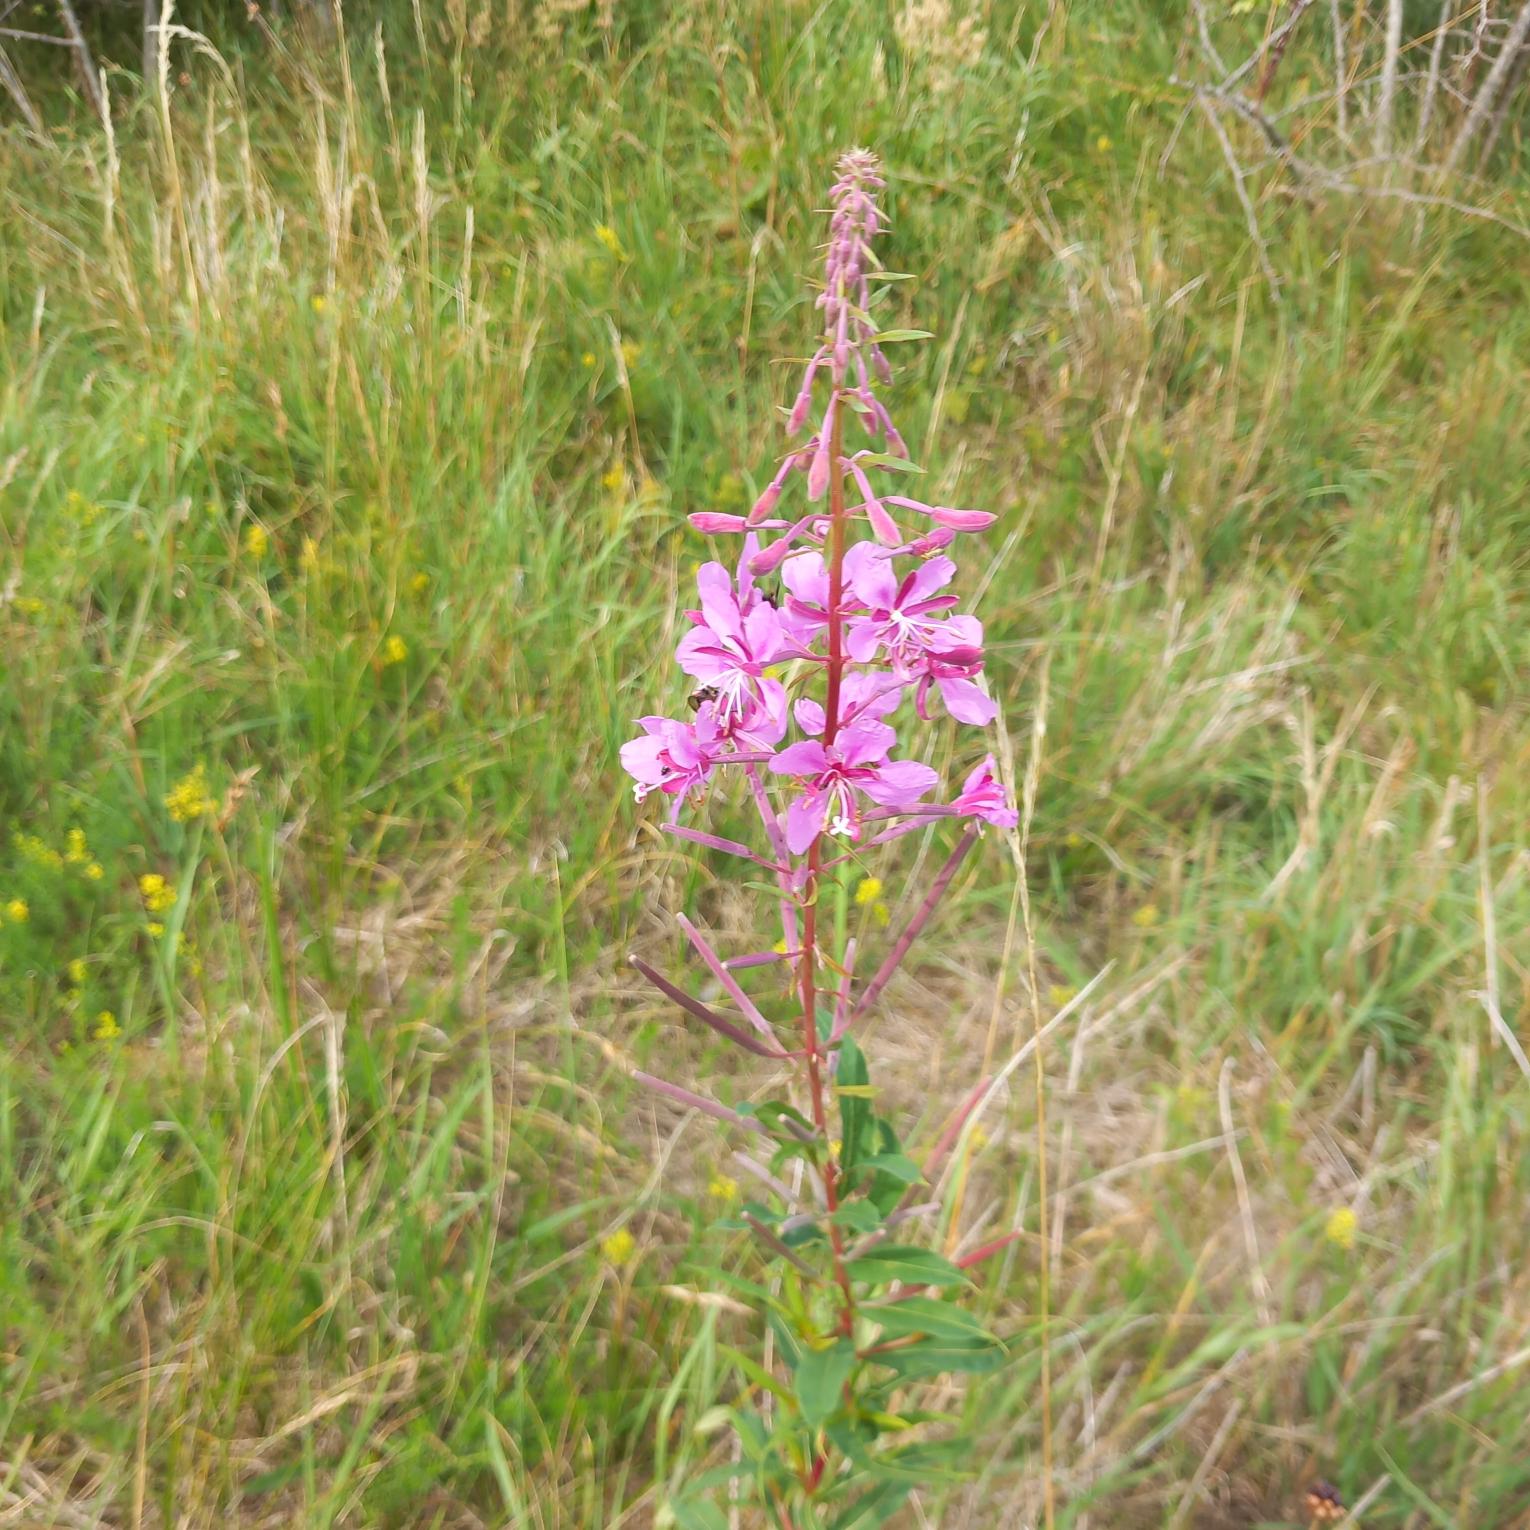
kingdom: Plantae
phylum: Tracheophyta
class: Magnoliopsida
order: Myrtales
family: Onagraceae
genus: Chamaenerion
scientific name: Chamaenerion angustifolium
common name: Gederams
